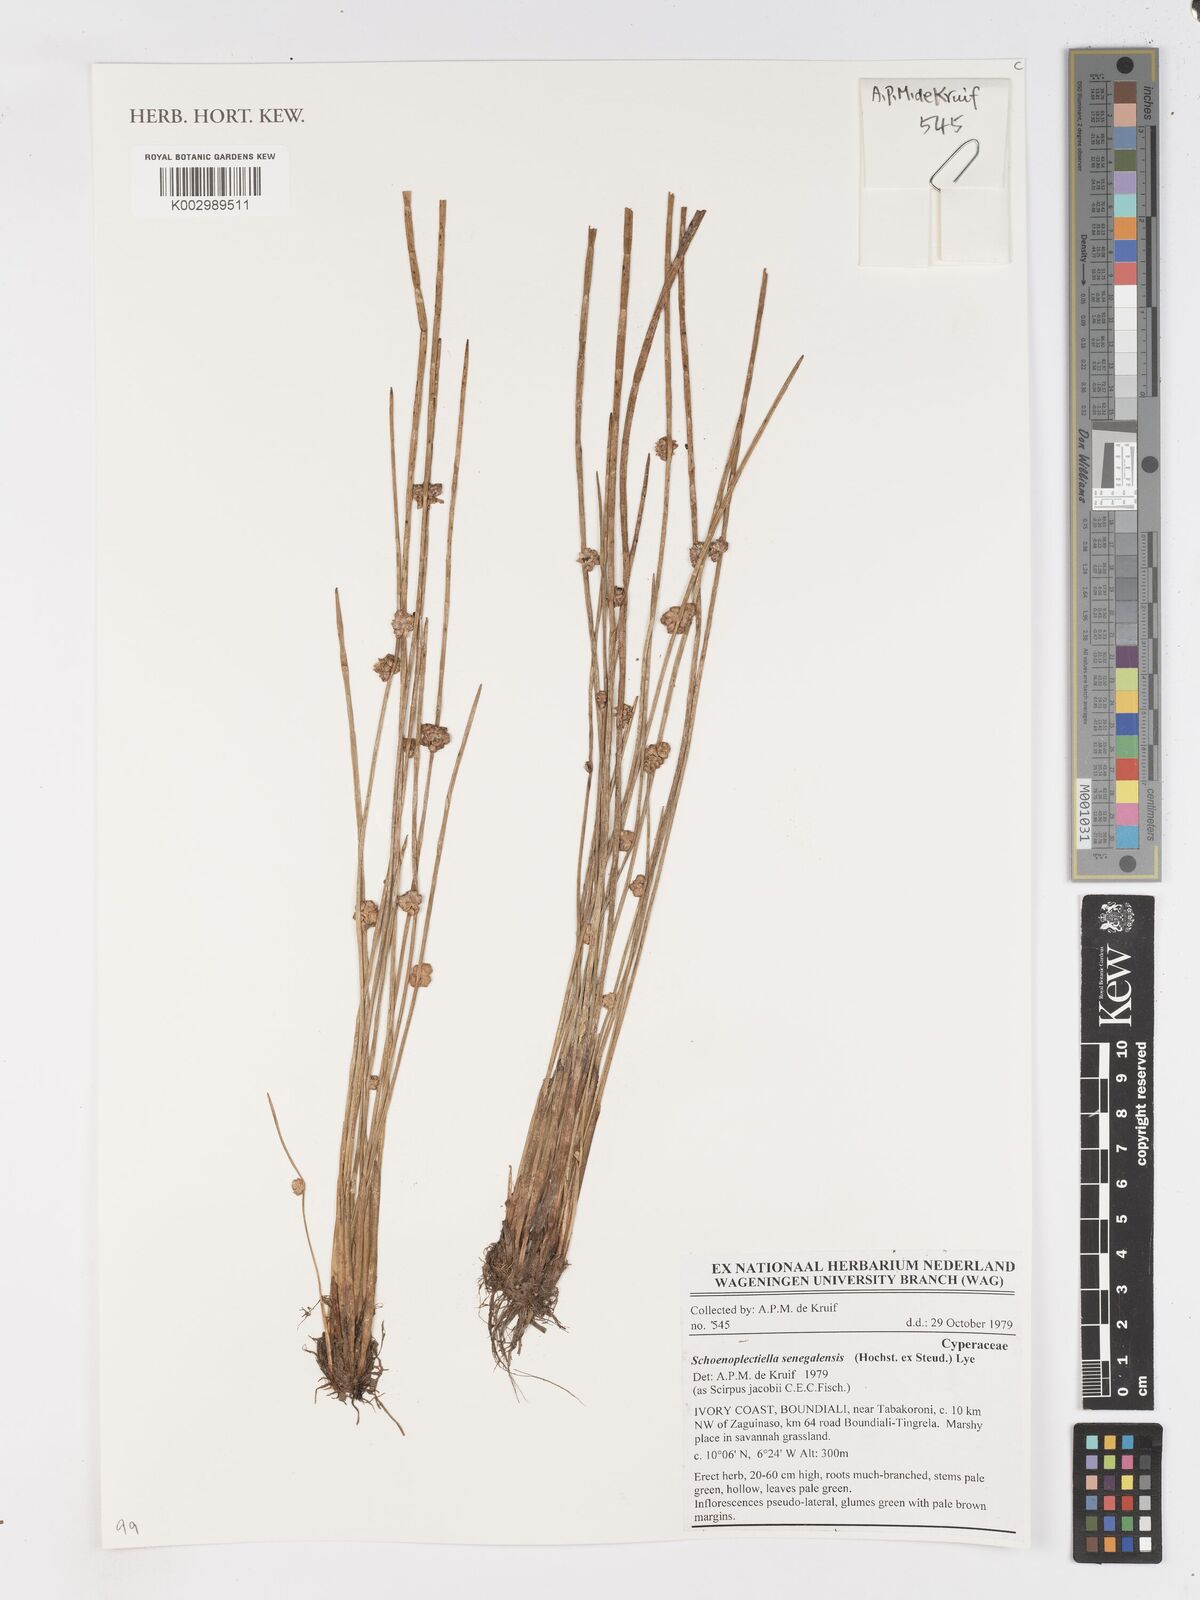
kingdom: Plantae
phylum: Tracheophyta
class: Liliopsida
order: Poales
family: Cyperaceae
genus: Schoenoplectiella
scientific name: Schoenoplectiella senegalensis
